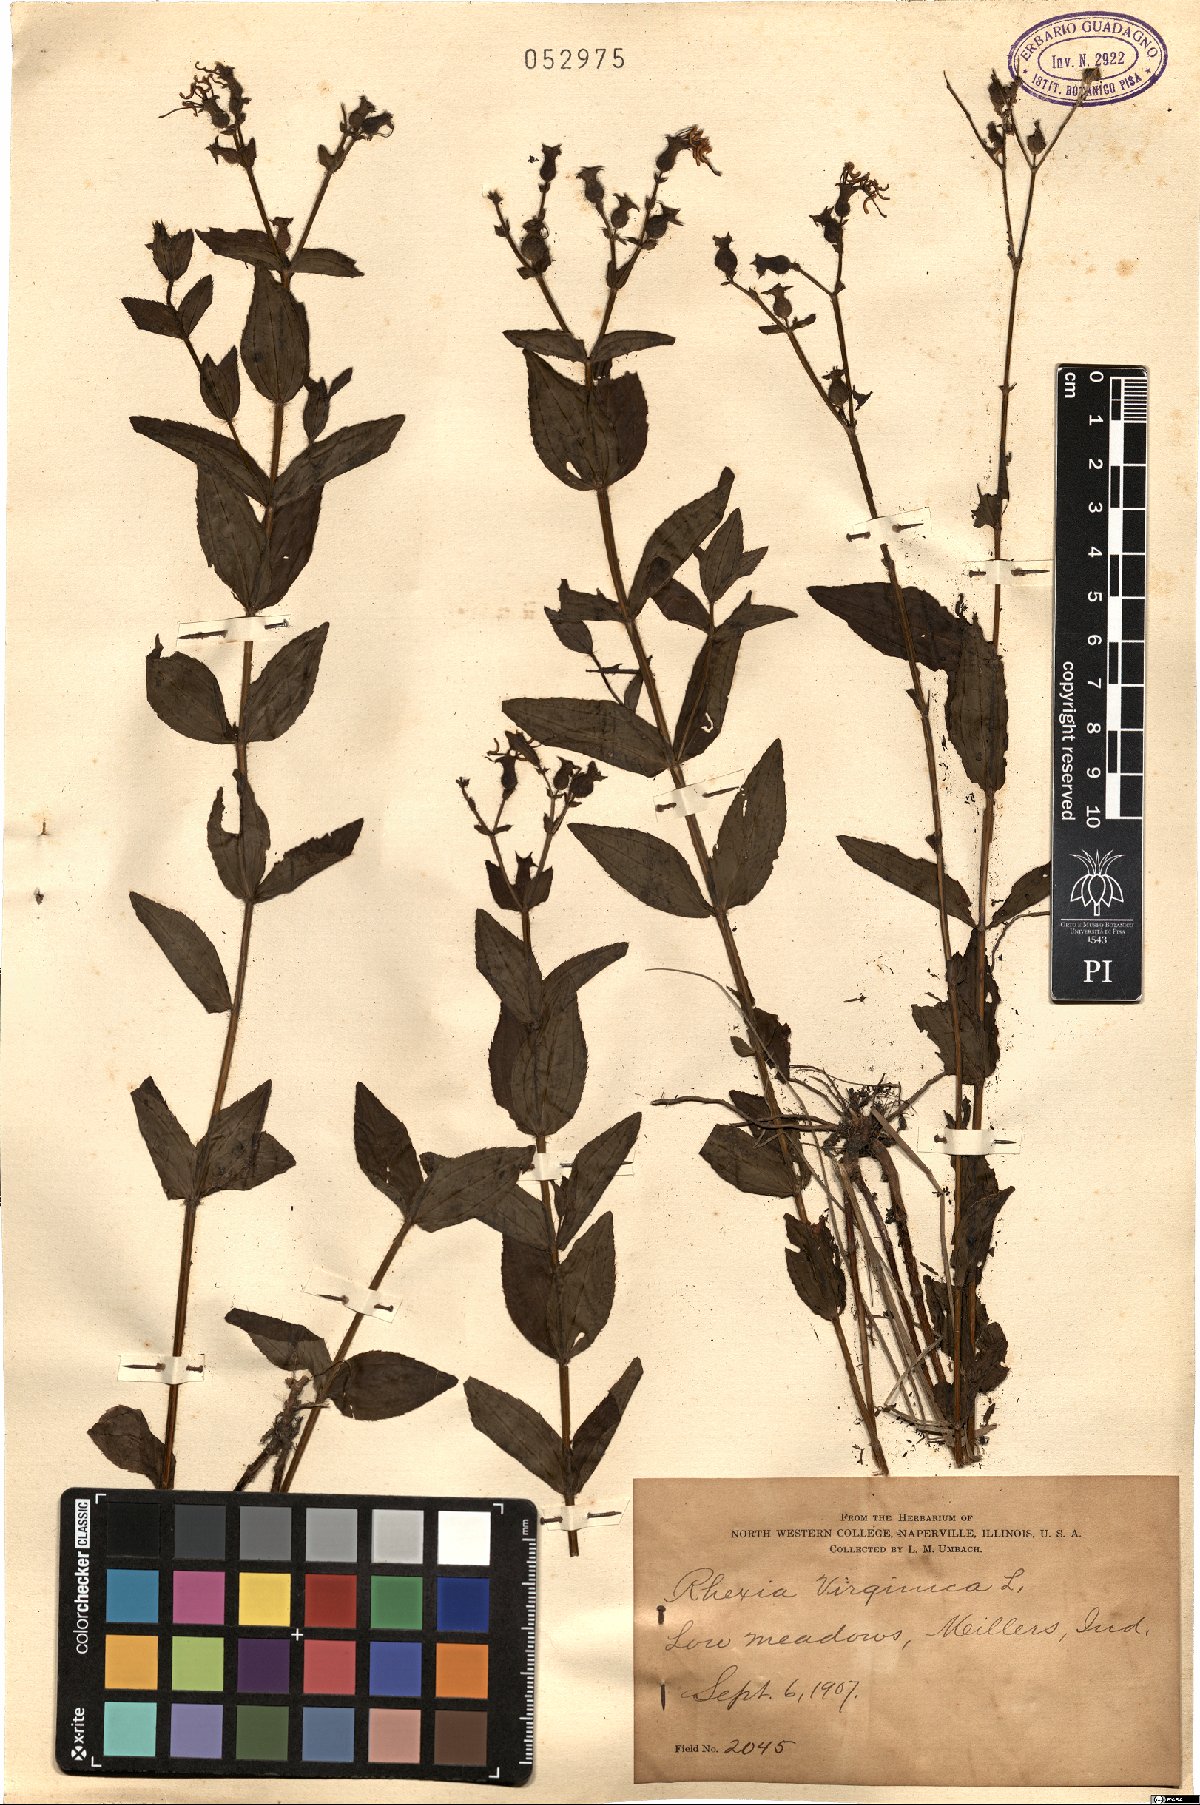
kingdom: Plantae
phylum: Tracheophyta
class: Magnoliopsida
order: Myrtales
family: Melastomataceae
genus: Rhexia
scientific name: Rhexia virginica
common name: Common meadow beauty
